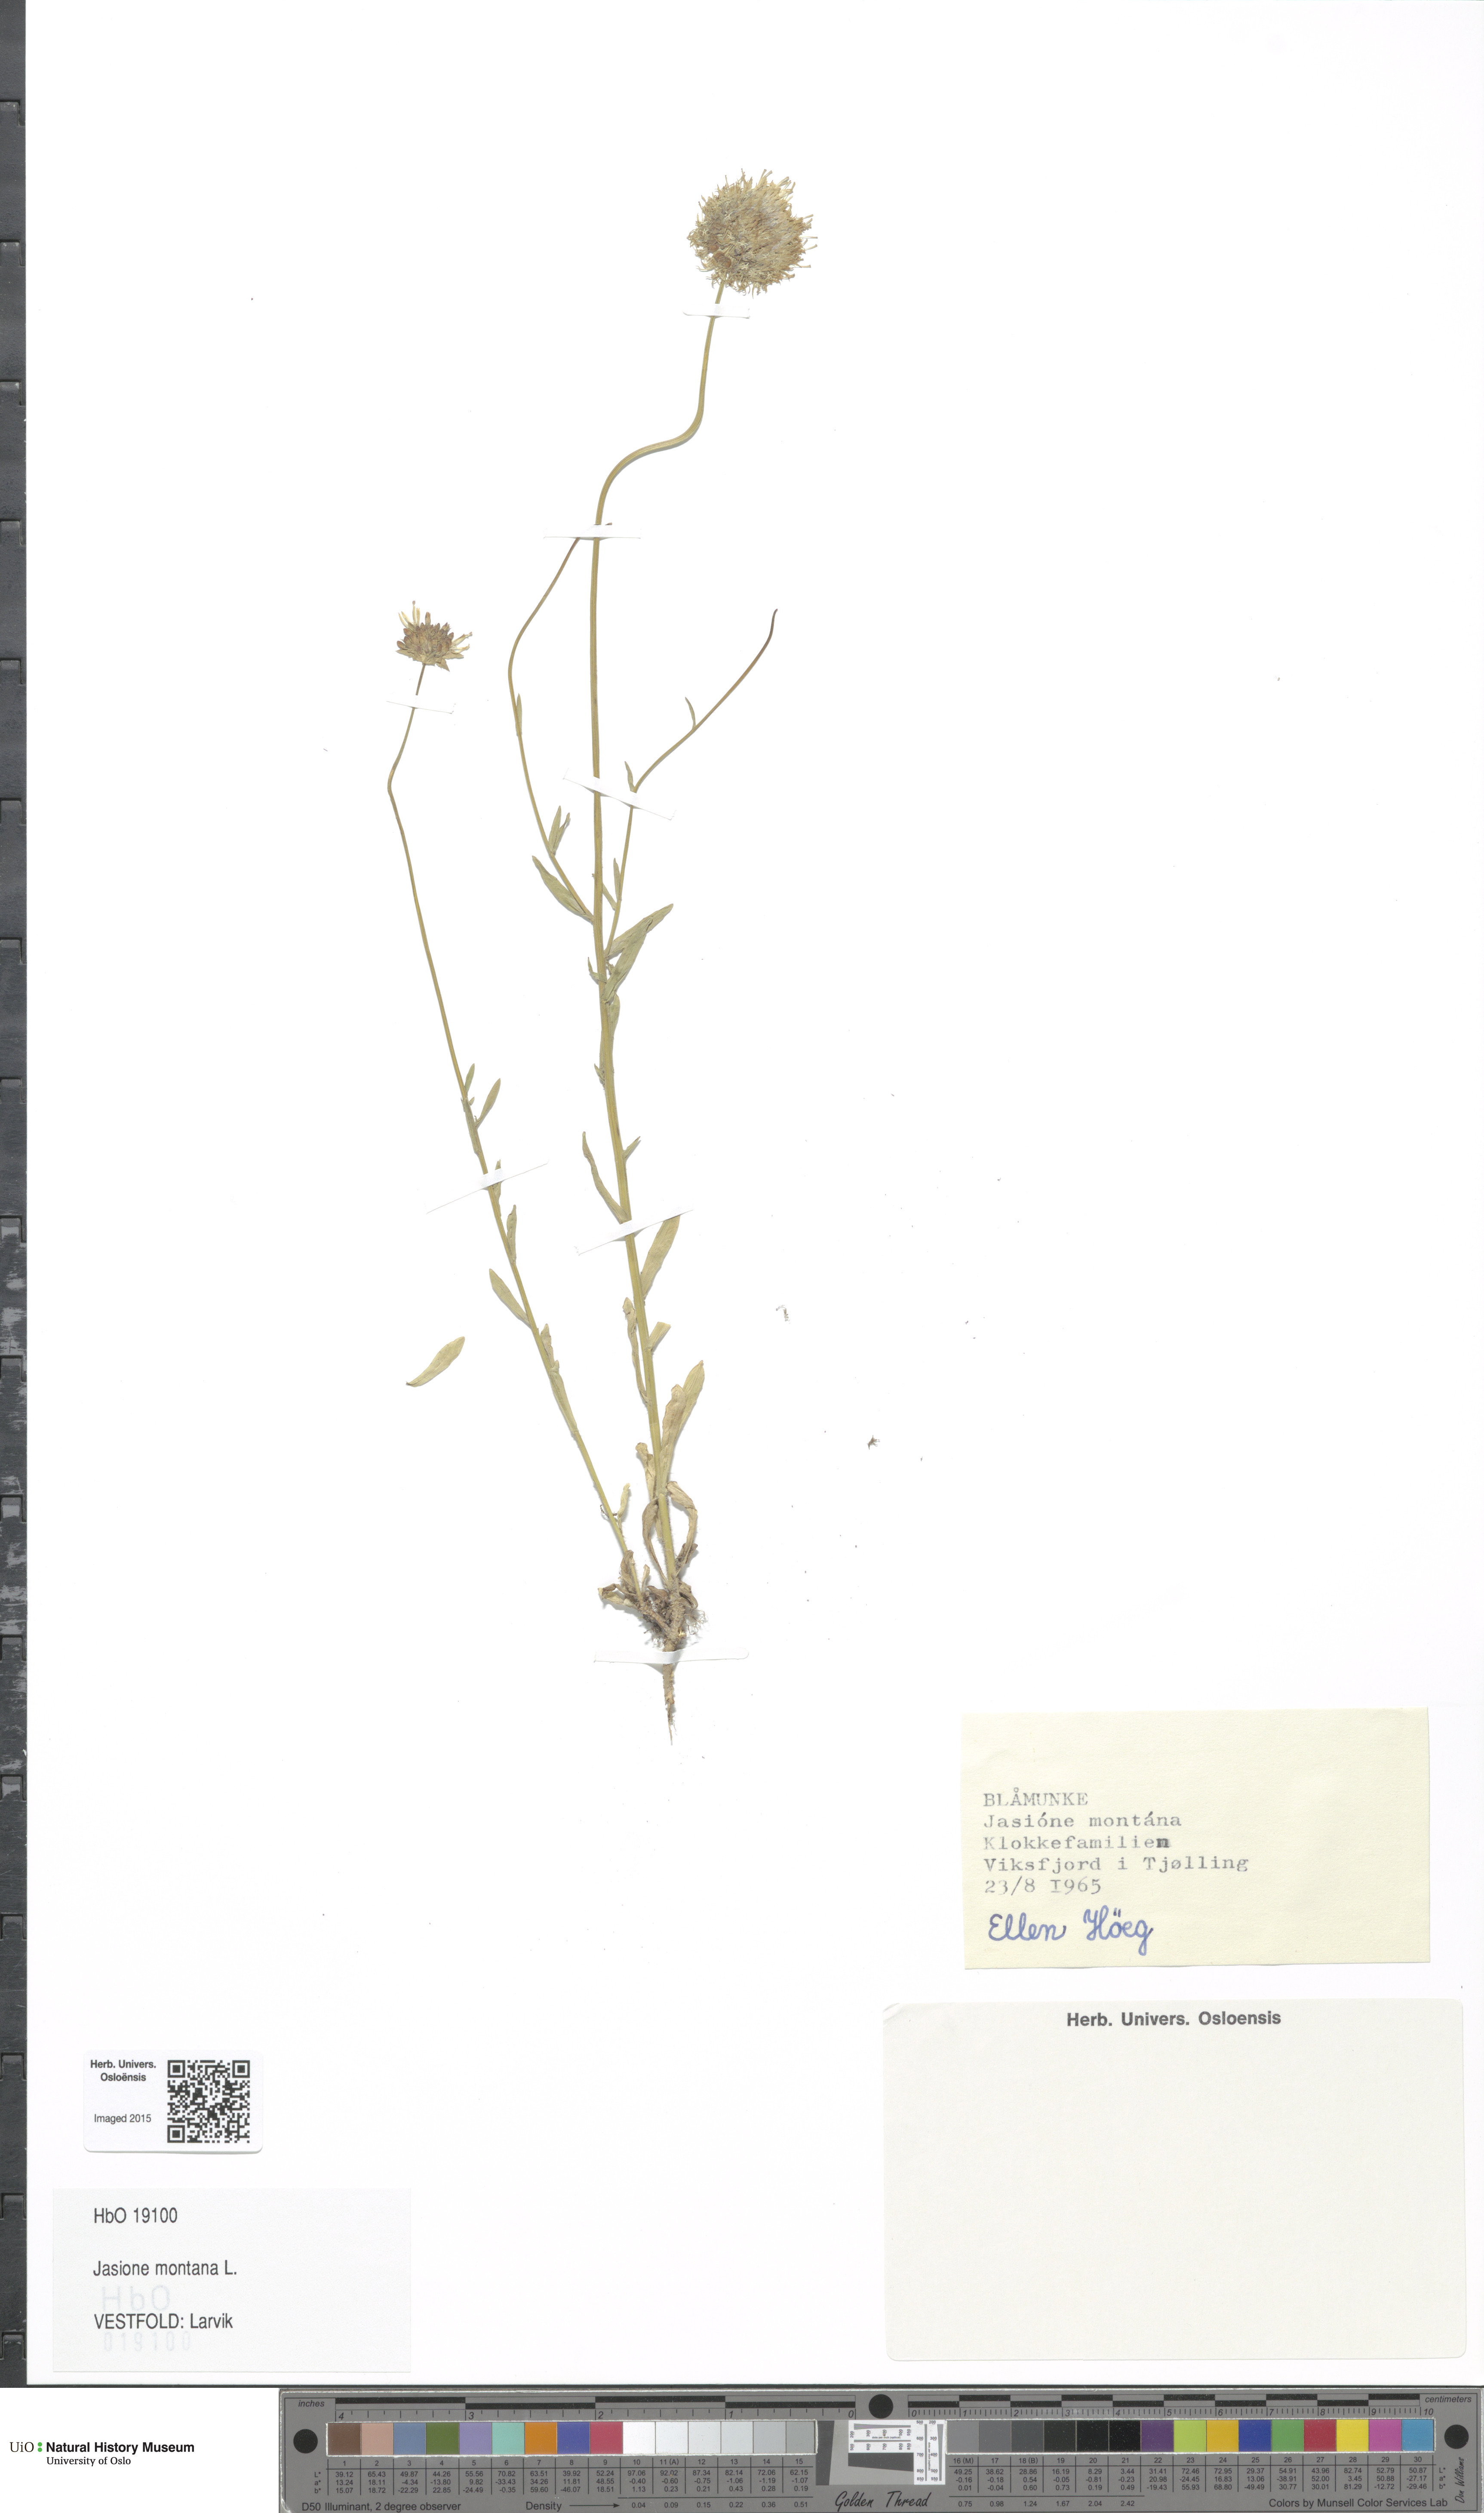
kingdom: Plantae
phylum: Tracheophyta
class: Magnoliopsida
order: Asterales
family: Campanulaceae
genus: Jasione
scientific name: Jasione montana
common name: Sheep's-bit
